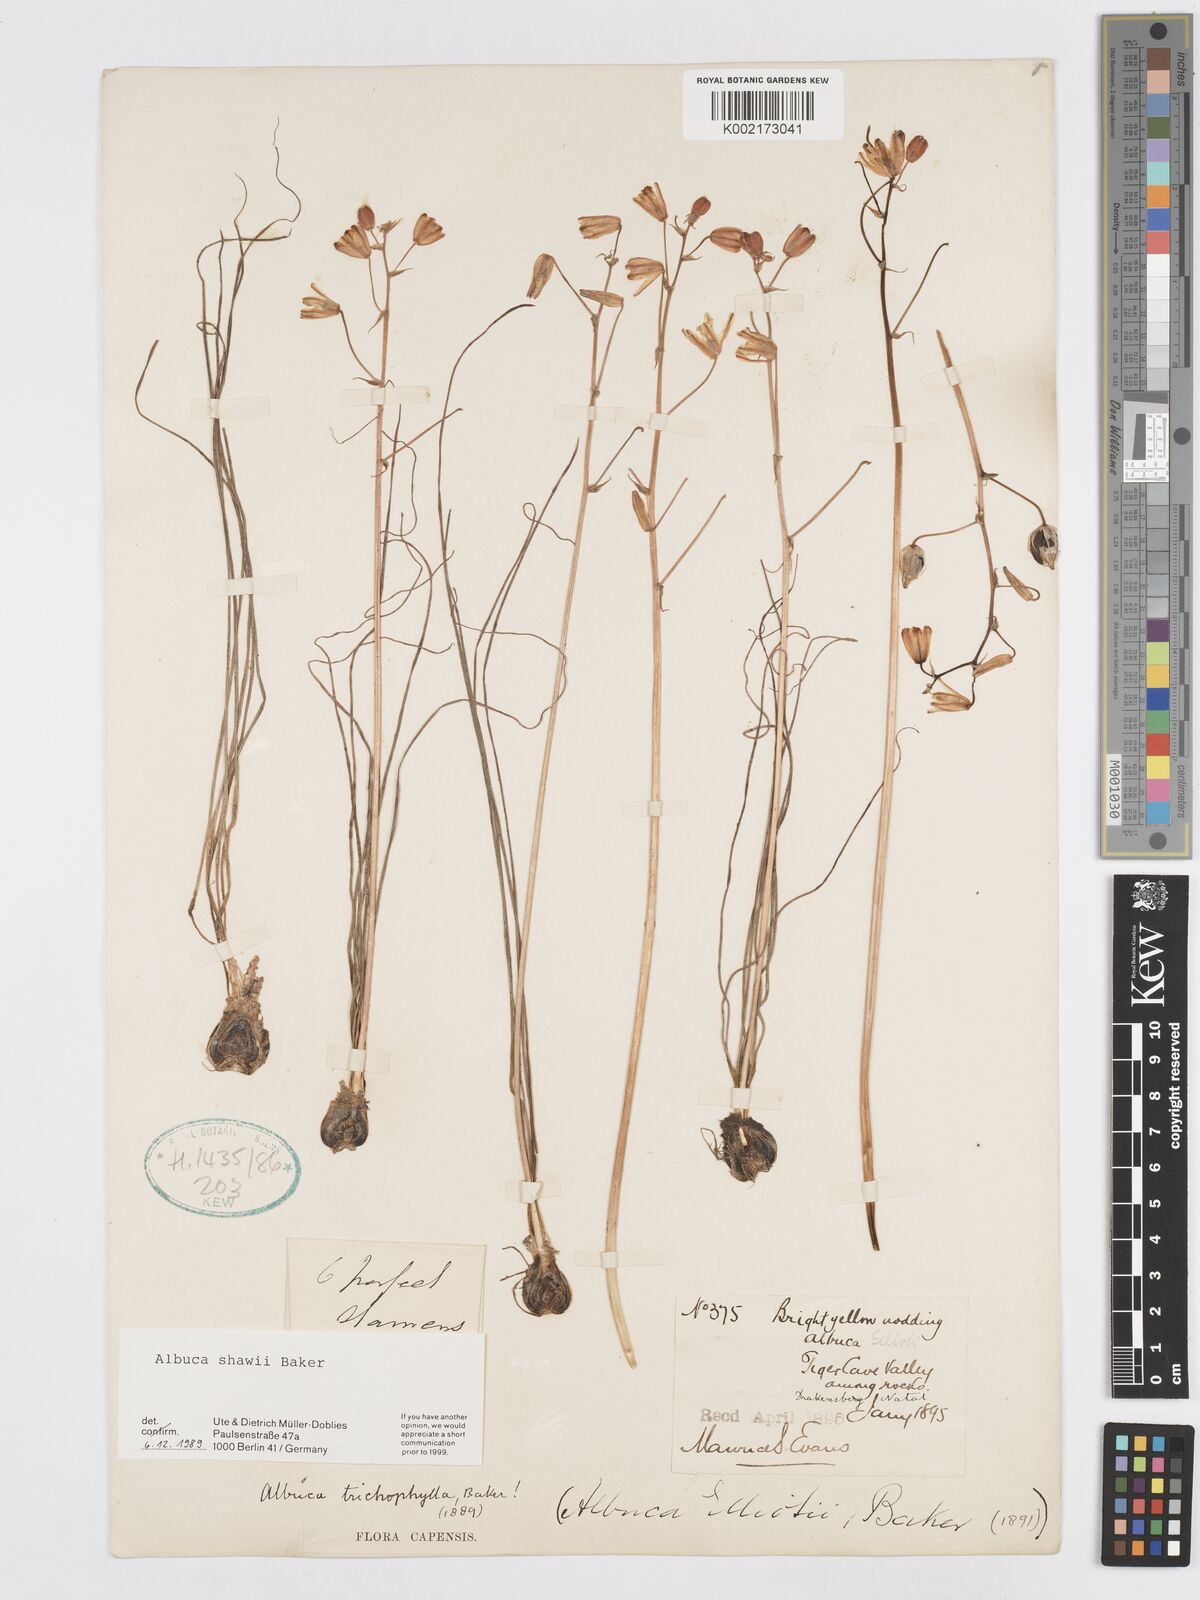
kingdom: Plantae
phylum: Tracheophyta
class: Liliopsida
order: Asparagales
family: Asparagaceae
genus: Albuca
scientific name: Albuca shawii
